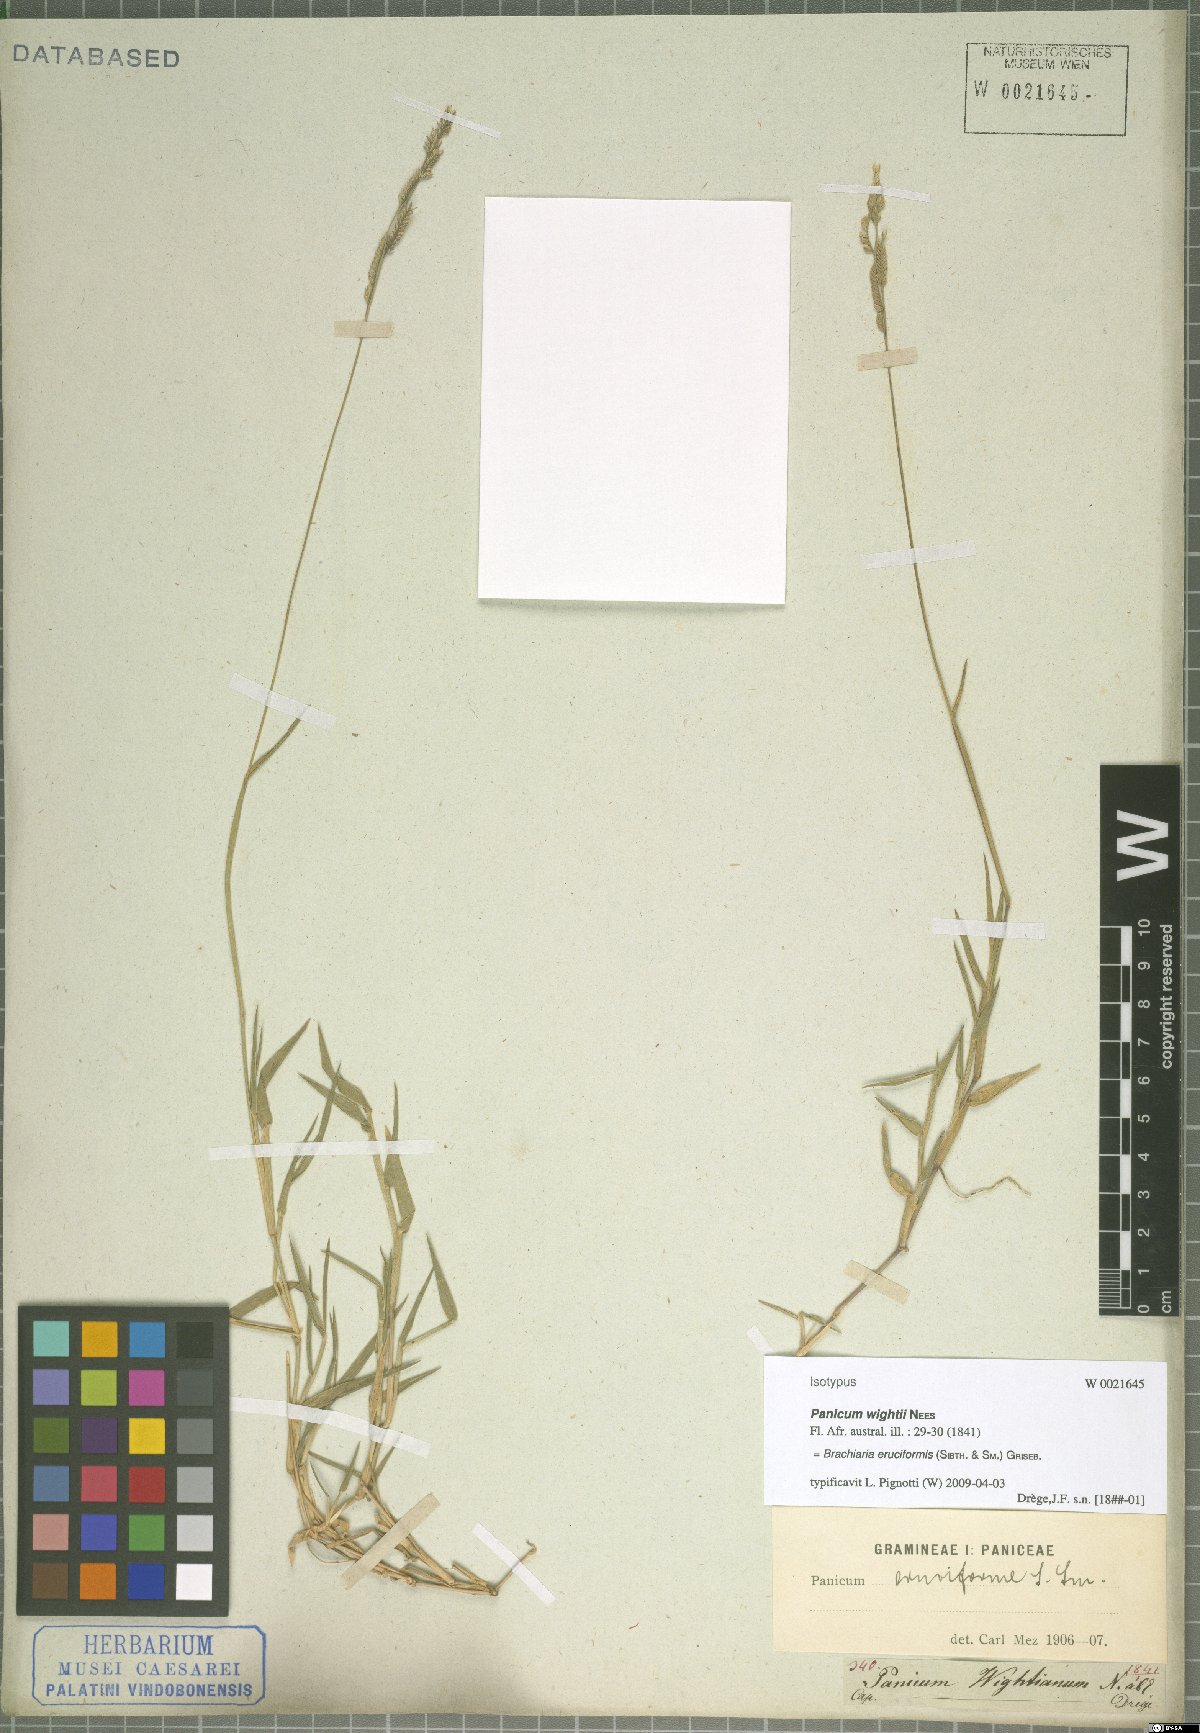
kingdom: Plantae
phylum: Tracheophyta
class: Liliopsida
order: Poales
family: Poaceae
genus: Moorochloa
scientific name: Moorochloa eruciformis
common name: Sweet signalgrass
